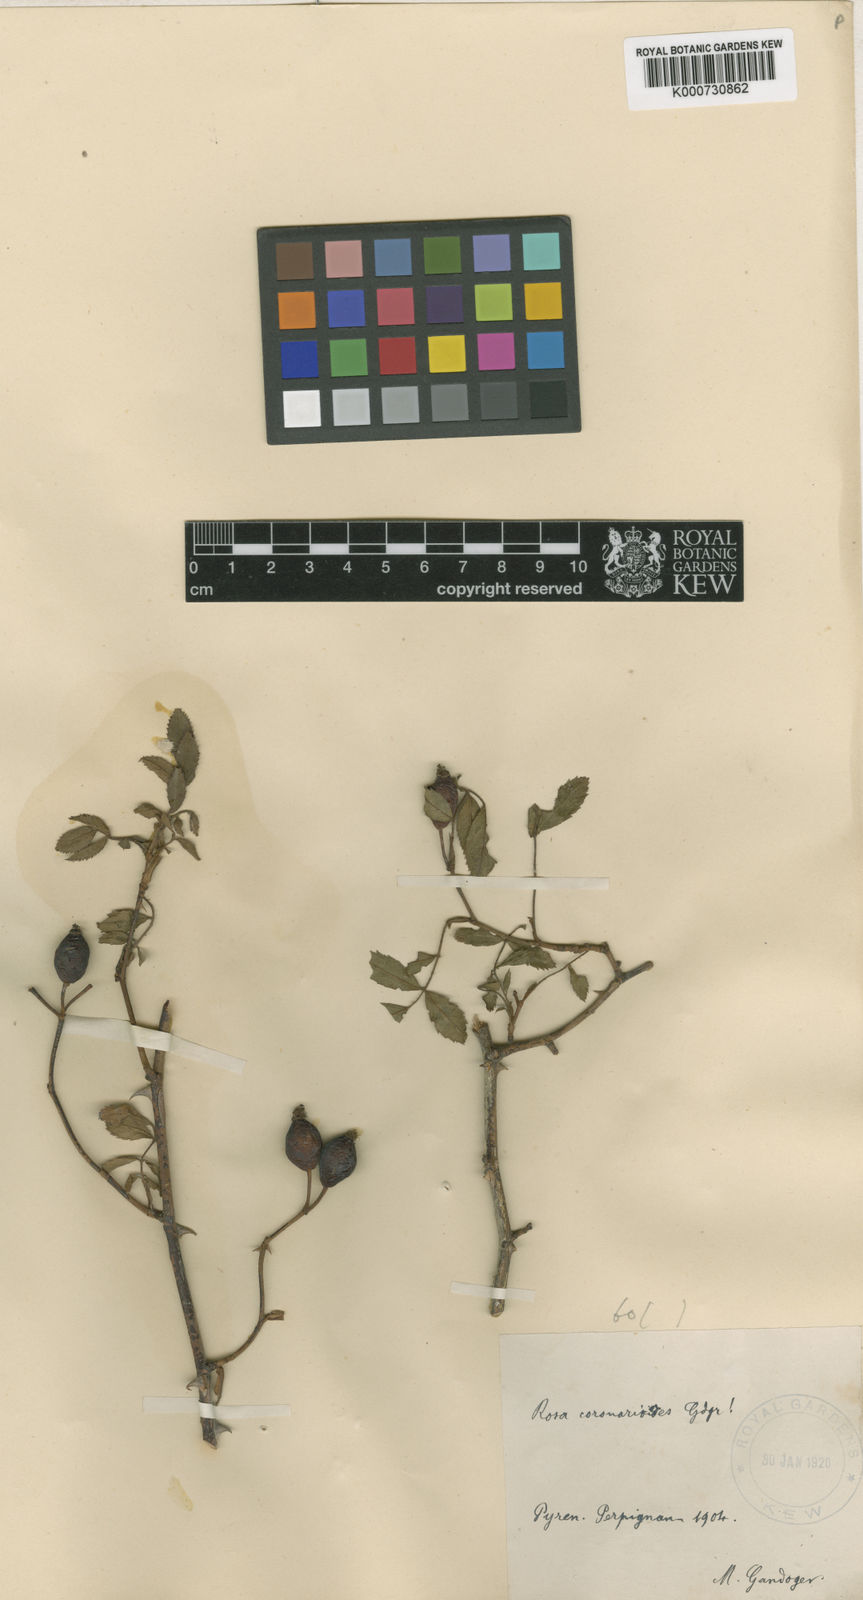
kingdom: Plantae
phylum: Tracheophyta
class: Magnoliopsida
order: Rosales
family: Rosaceae
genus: Rosa
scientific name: Rosa
